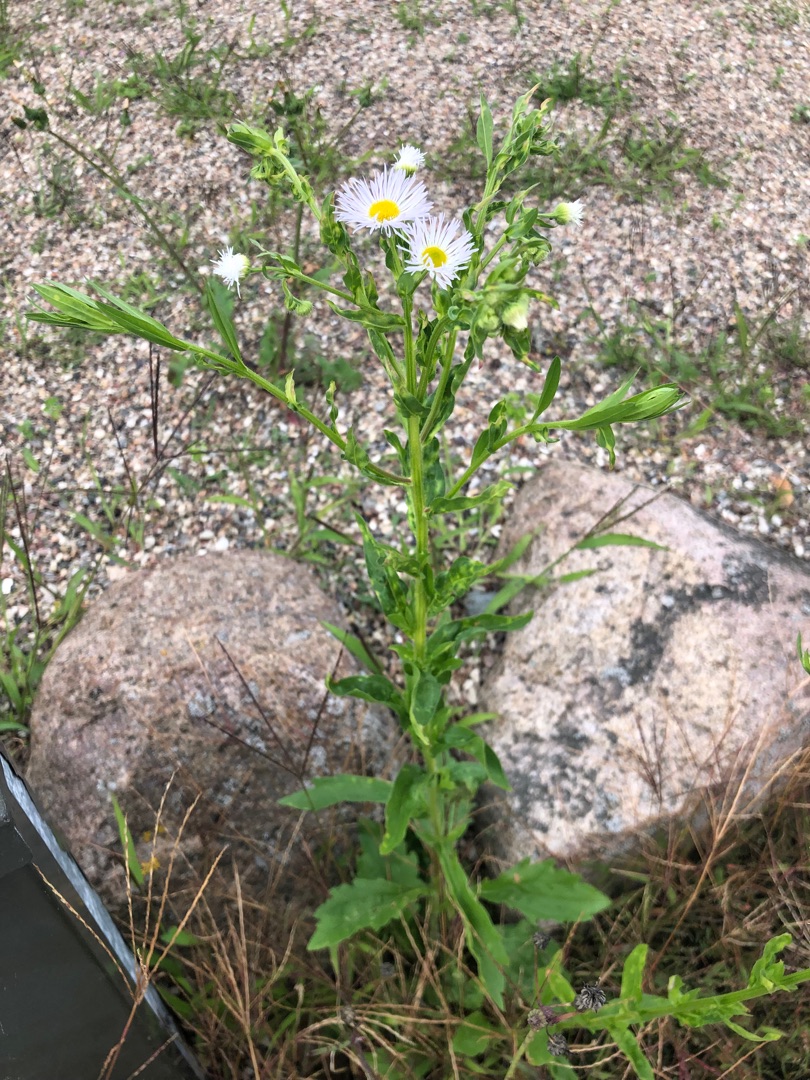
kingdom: Plantae
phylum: Tracheophyta
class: Magnoliopsida
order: Asterales
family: Asteraceae
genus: Erigeron
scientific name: Erigeron annuus
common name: Smalstråle
